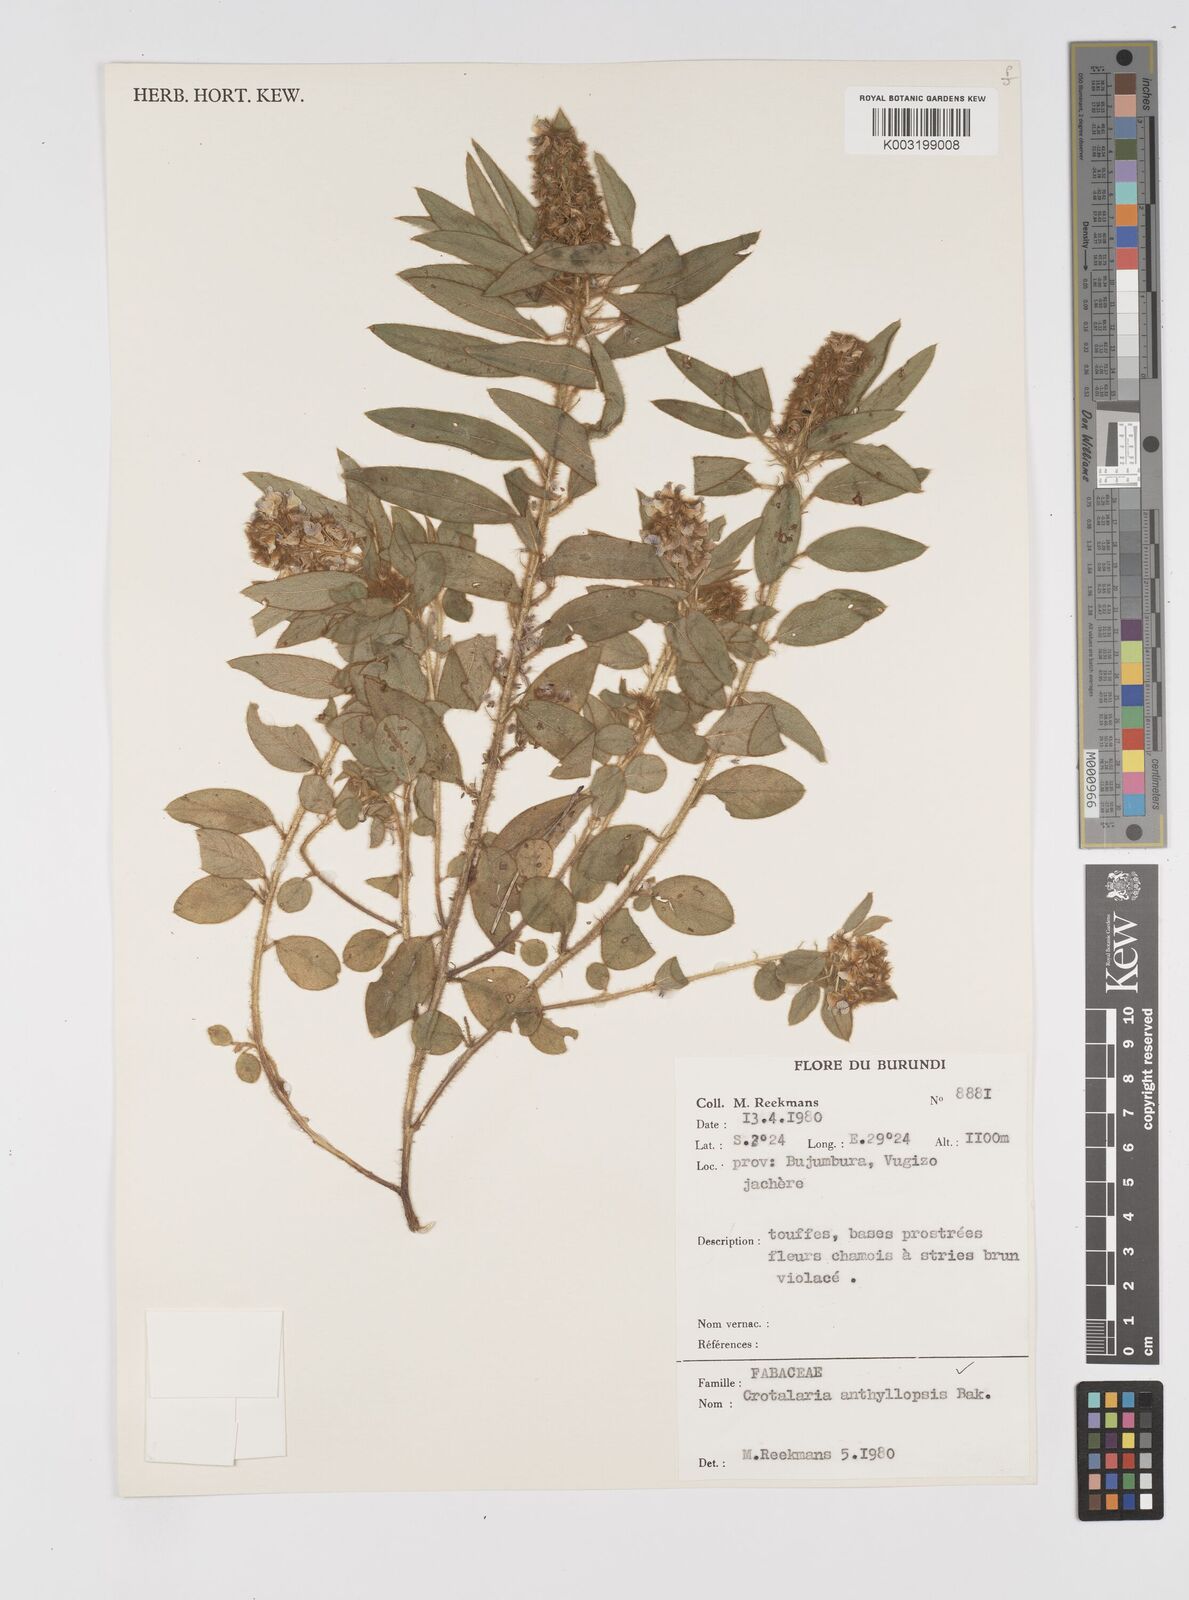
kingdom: Plantae
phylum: Tracheophyta
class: Magnoliopsida
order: Fabales
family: Fabaceae
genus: Crotalaria
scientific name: Crotalaria anthyllopsis
